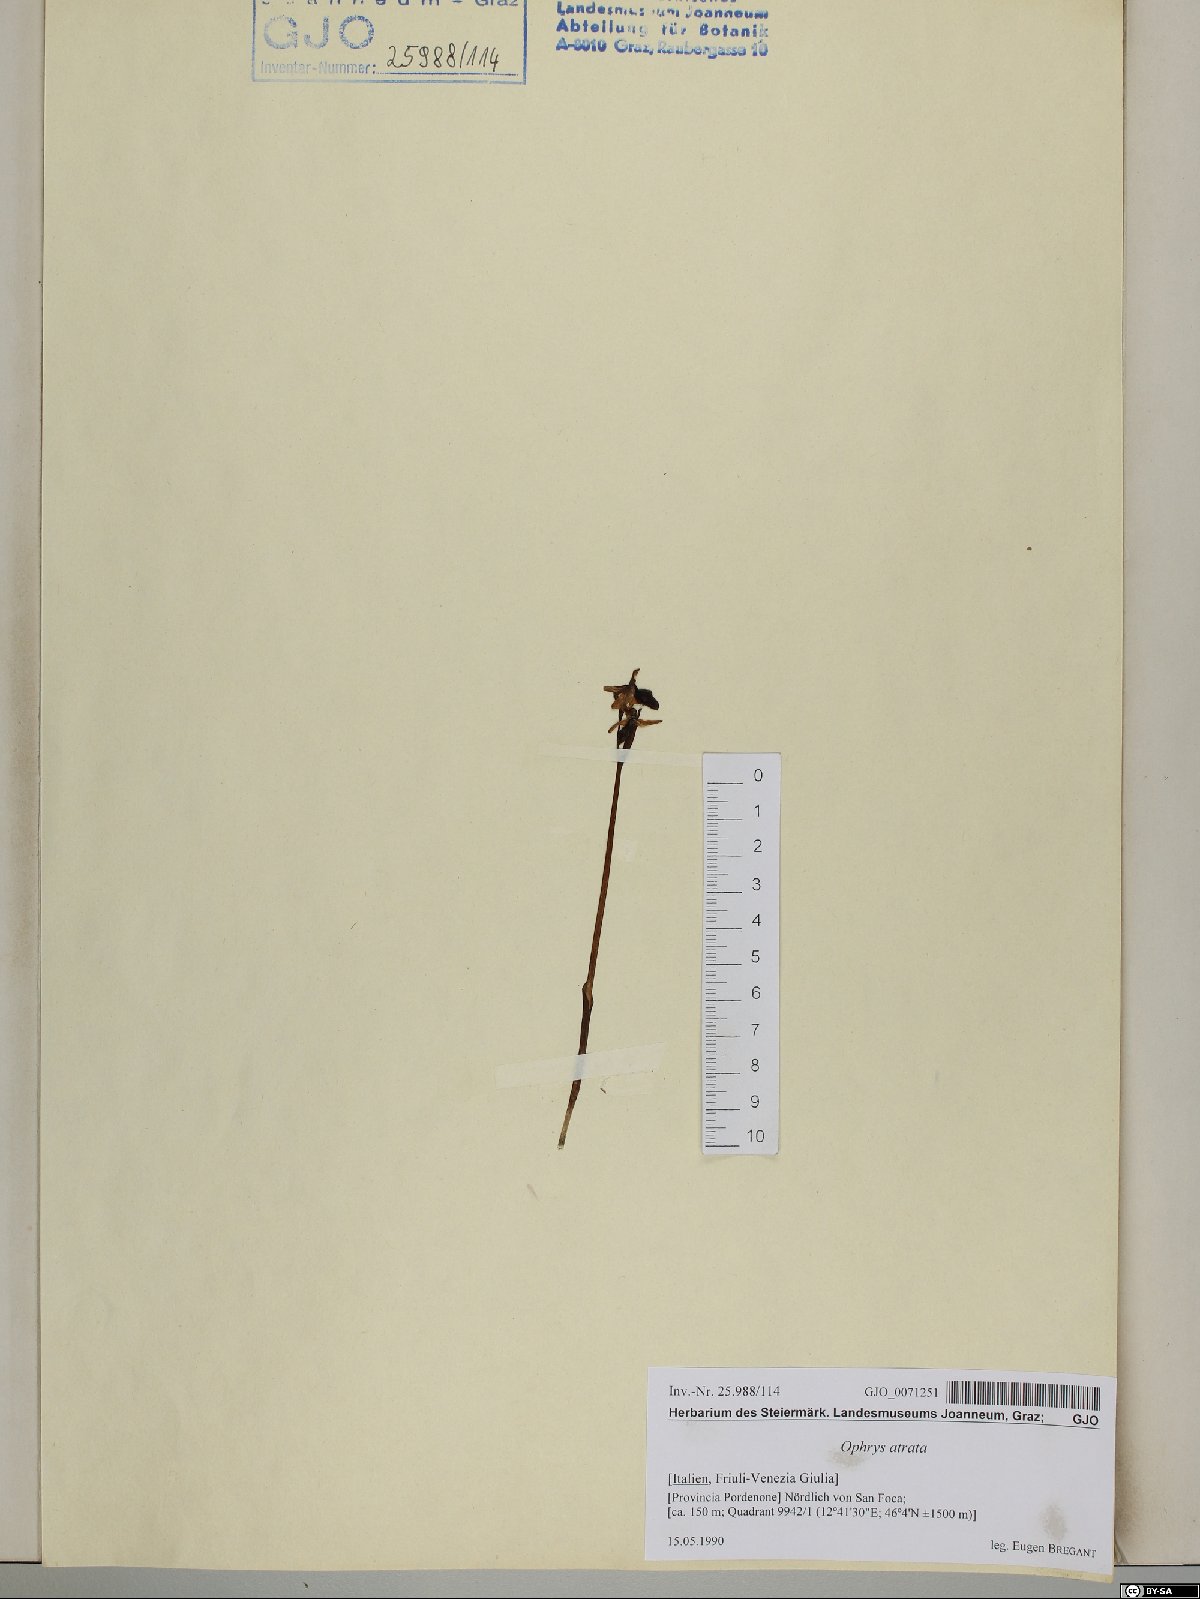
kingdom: Plantae
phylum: Tracheophyta
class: Liliopsida
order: Asparagales
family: Orchidaceae
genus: Ophrys
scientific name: Ophrys sphegodes
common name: Early spider-orchid
